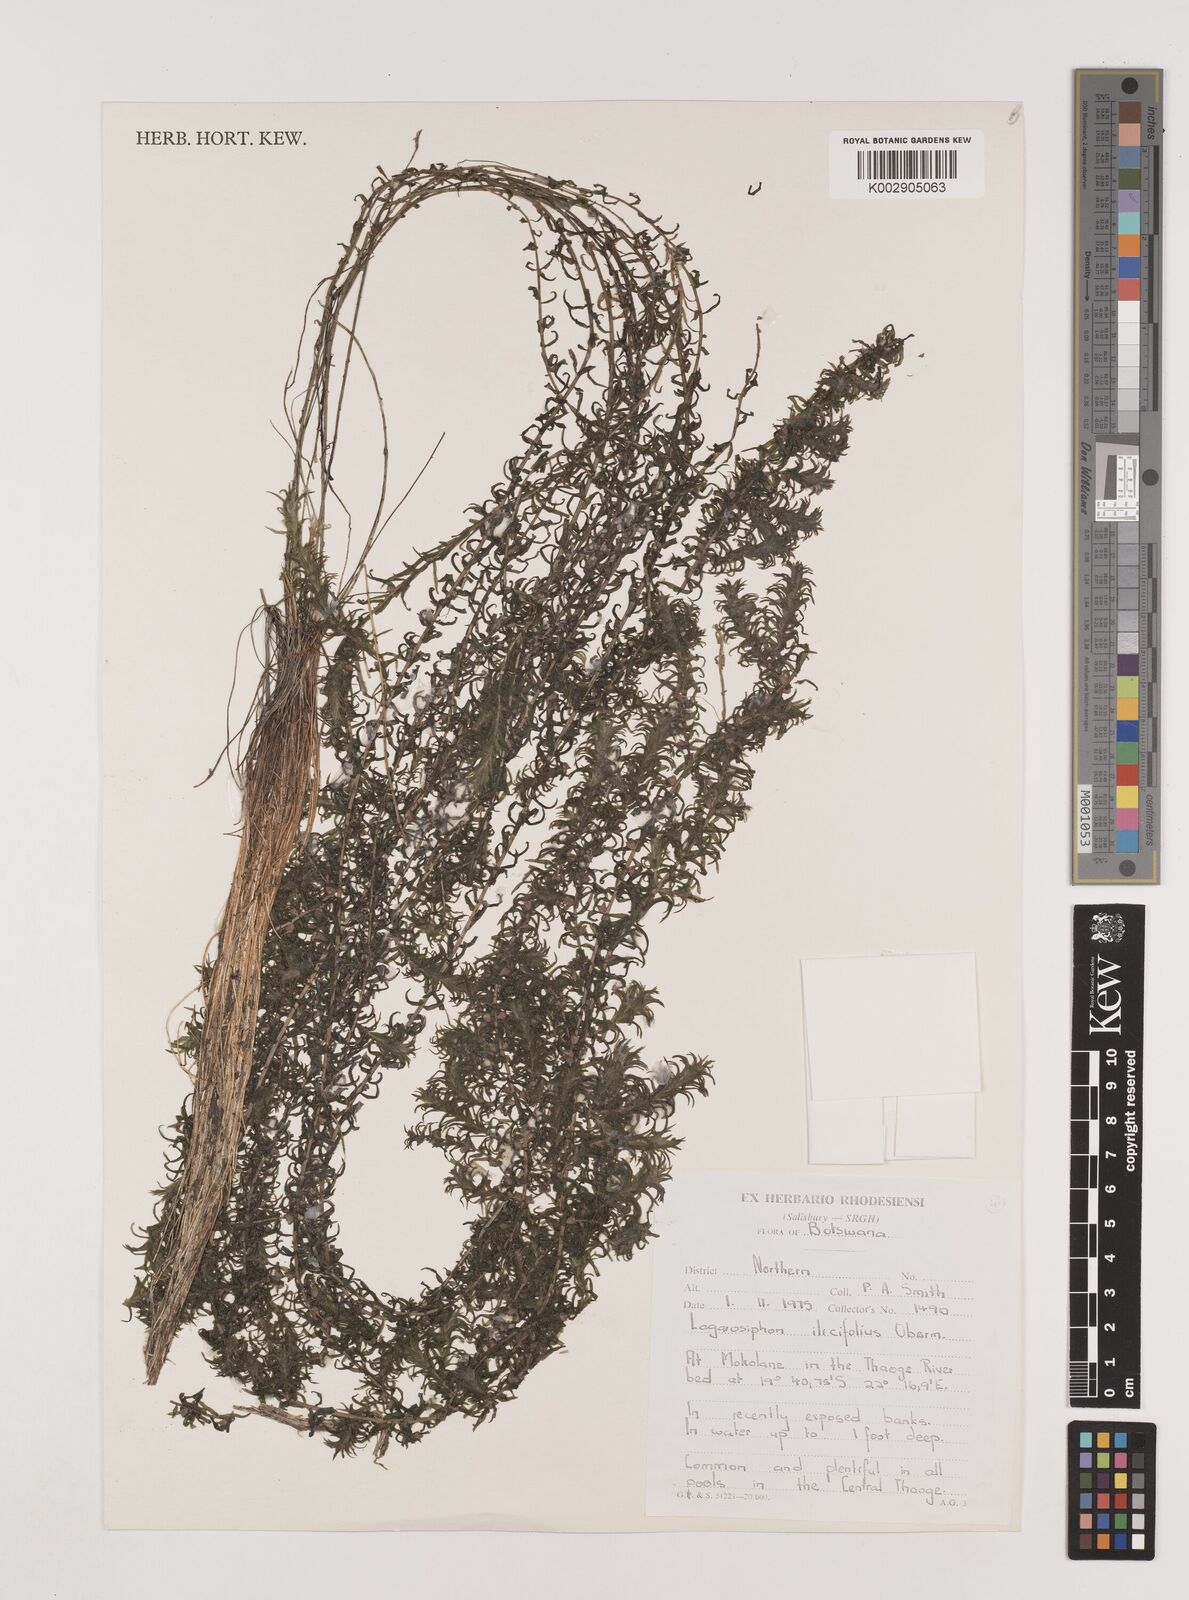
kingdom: Plantae
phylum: Tracheophyta
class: Liliopsida
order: Alismatales
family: Hydrocharitaceae
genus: Lagarosiphon
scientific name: Lagarosiphon ilicifolius
